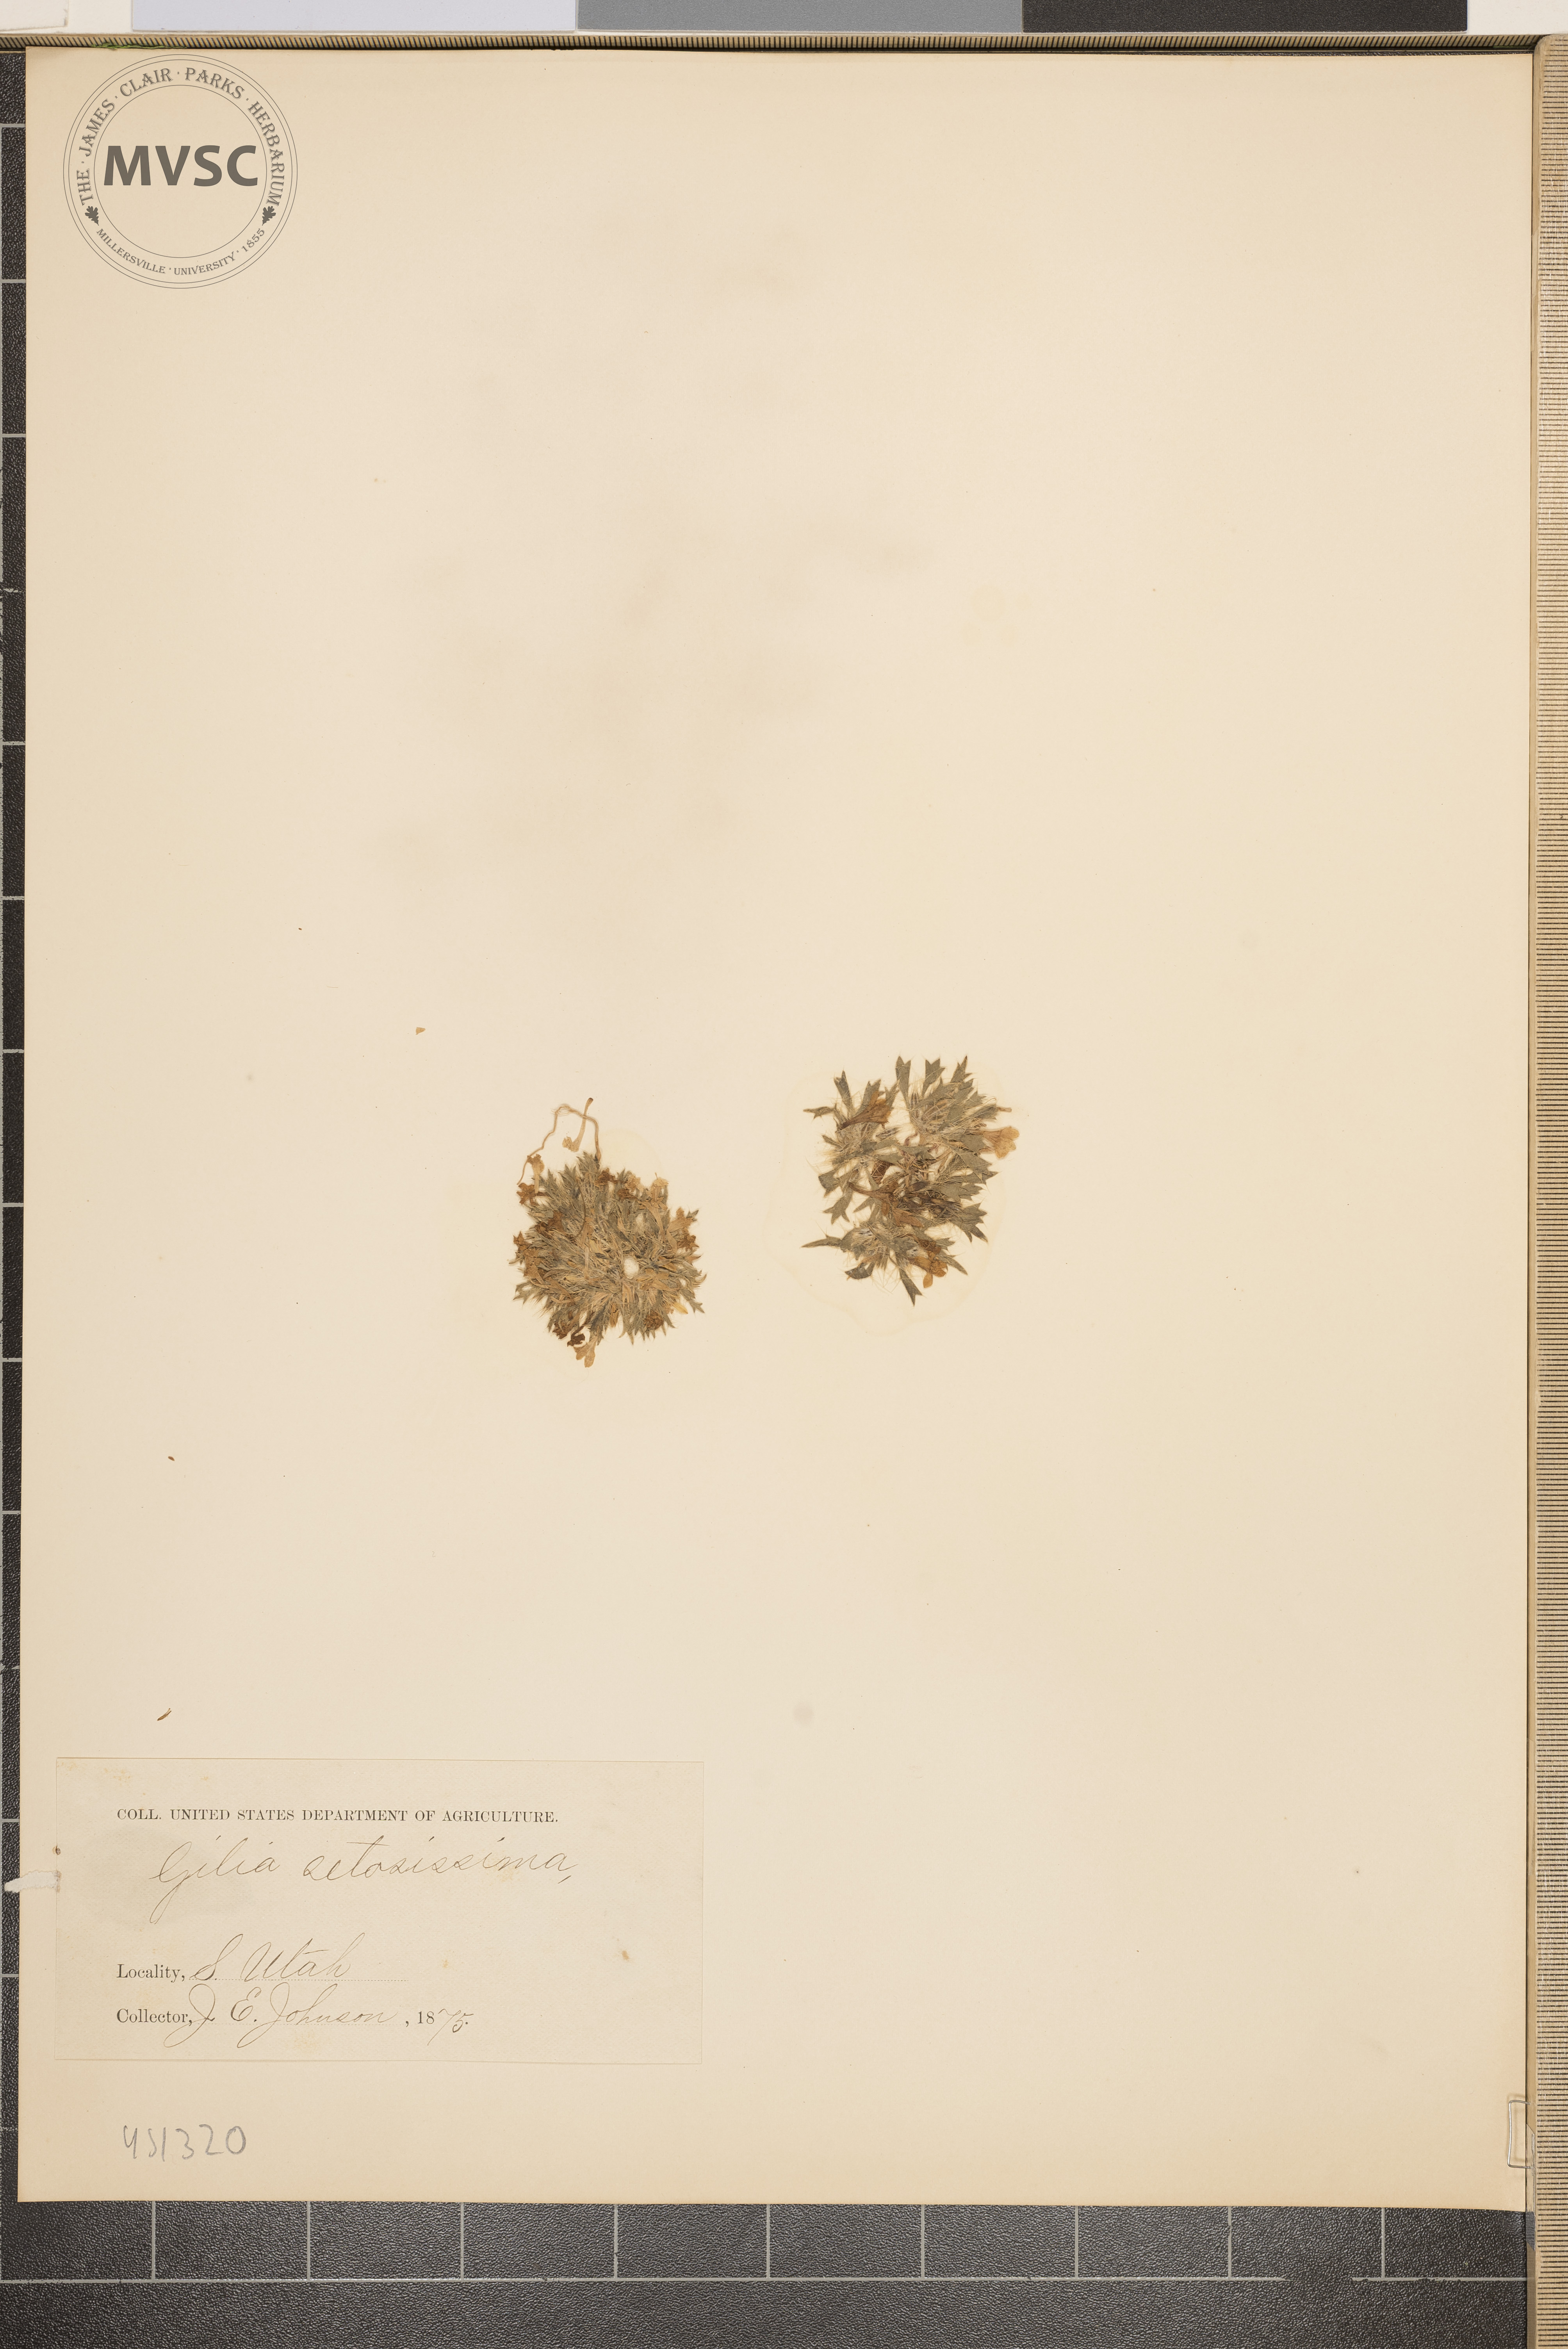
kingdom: Plantae
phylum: Tracheophyta
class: Magnoliopsida
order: Ericales
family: Polemoniaceae
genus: Langloisia
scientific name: Langloisia setosissima
